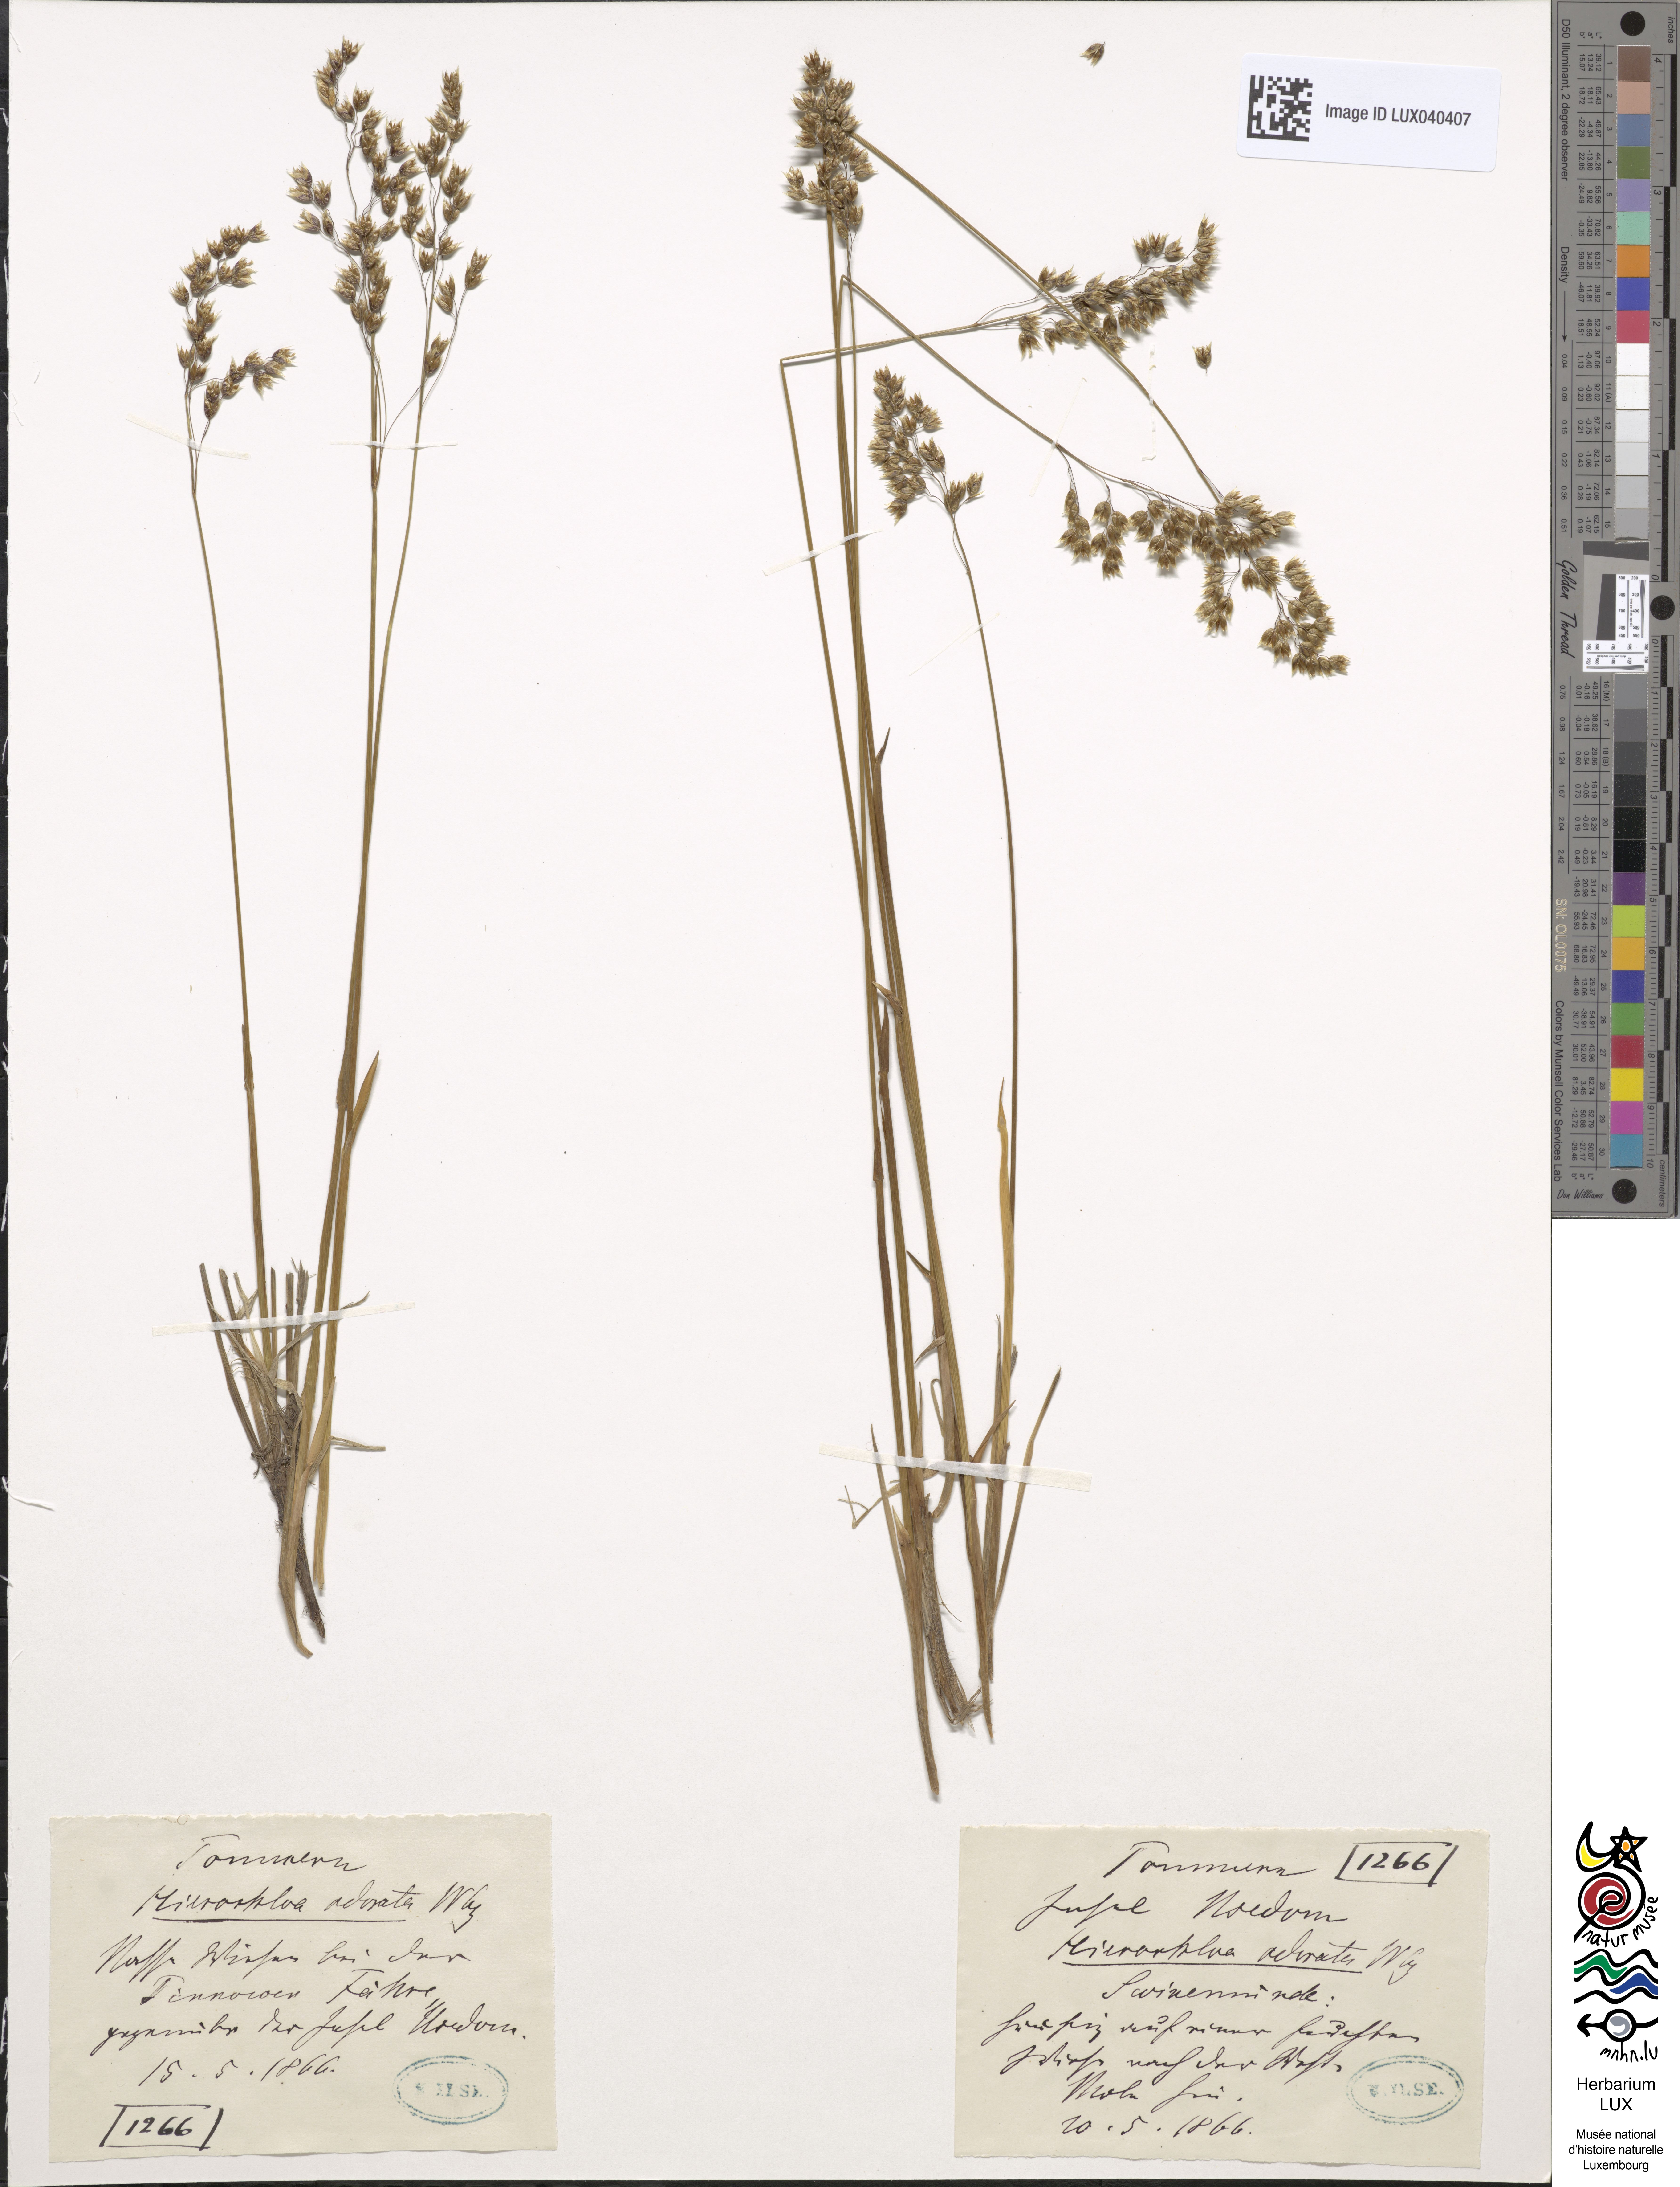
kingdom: Plantae
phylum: Tracheophyta
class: Liliopsida
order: Poales
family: Poaceae
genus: Anthoxanthum
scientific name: Anthoxanthum nitens
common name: Holy grass
